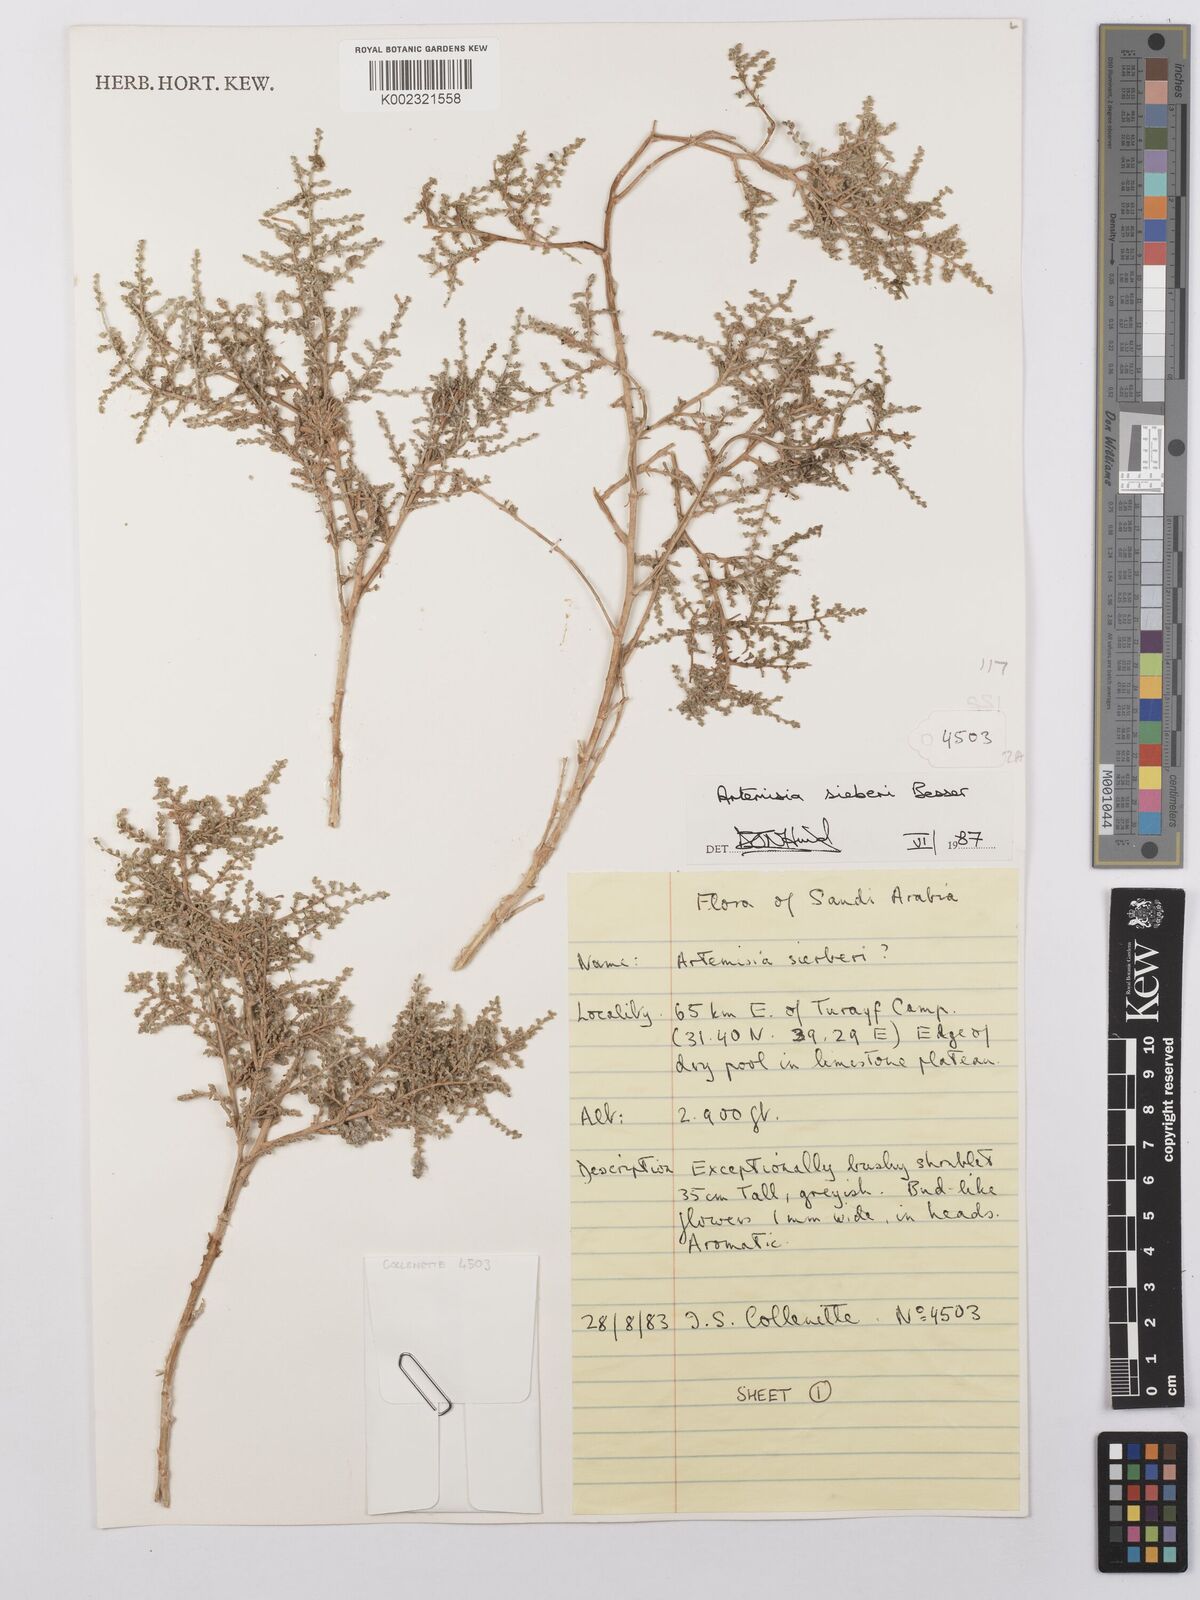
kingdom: Plantae
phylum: Tracheophyta
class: Magnoliopsida
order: Asterales
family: Asteraceae
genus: Artemisia
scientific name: Artemisia sieberi
